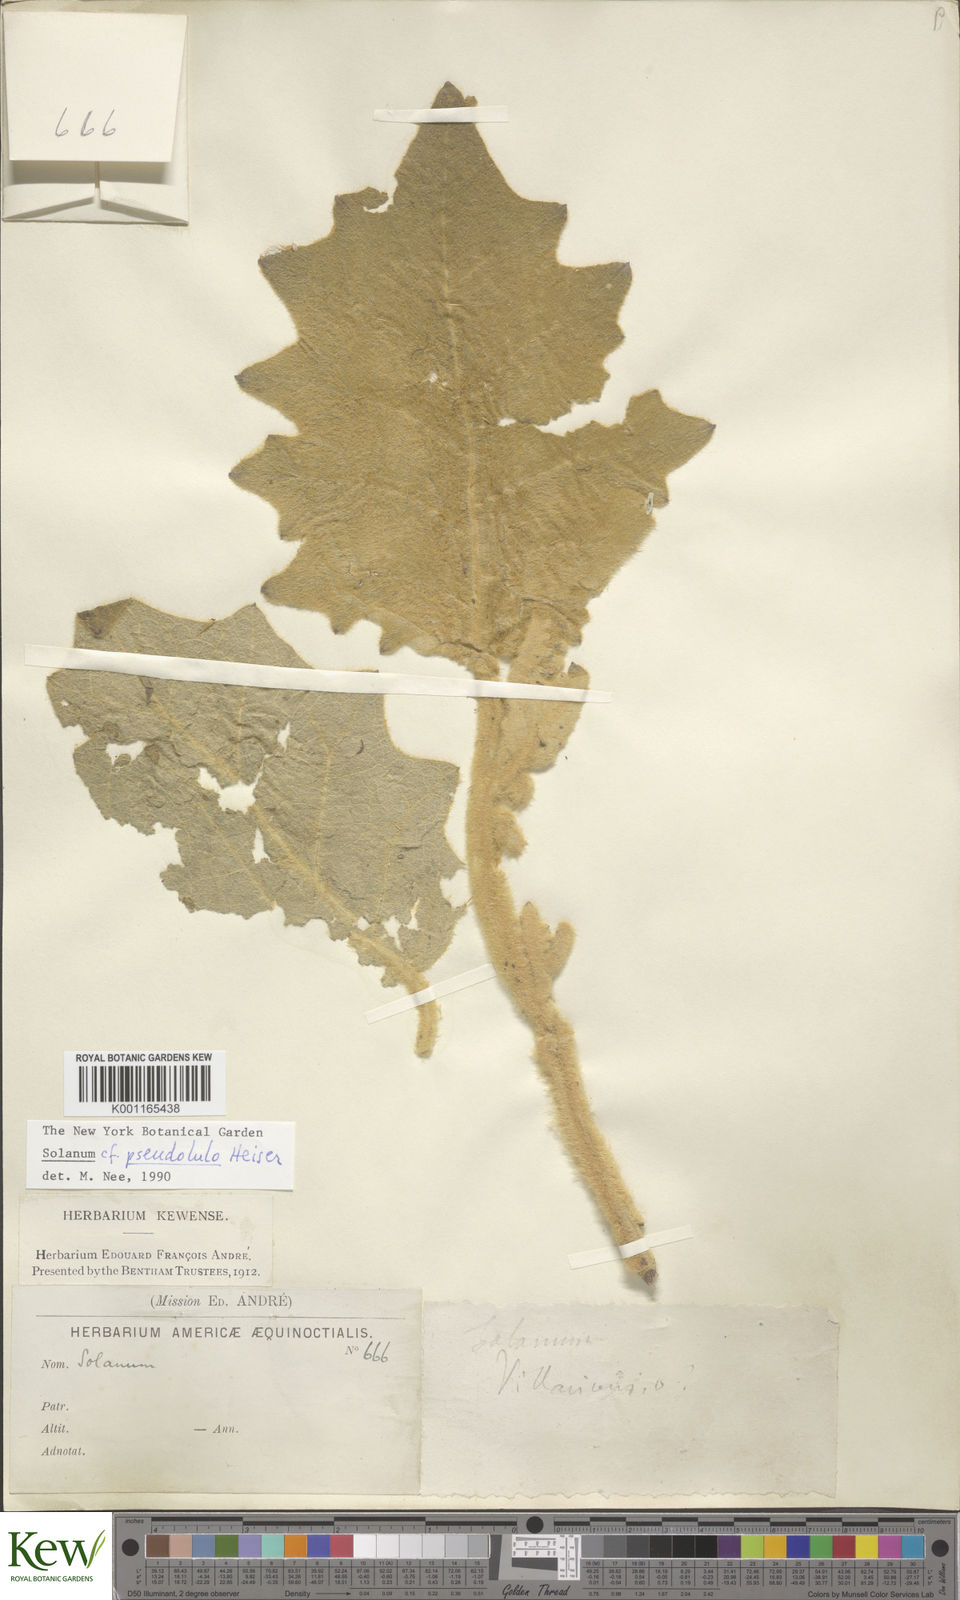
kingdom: Plantae
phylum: Tracheophyta
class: Magnoliopsida
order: Solanales
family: Solanaceae
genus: Solanum
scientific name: Solanum pseudolulo
